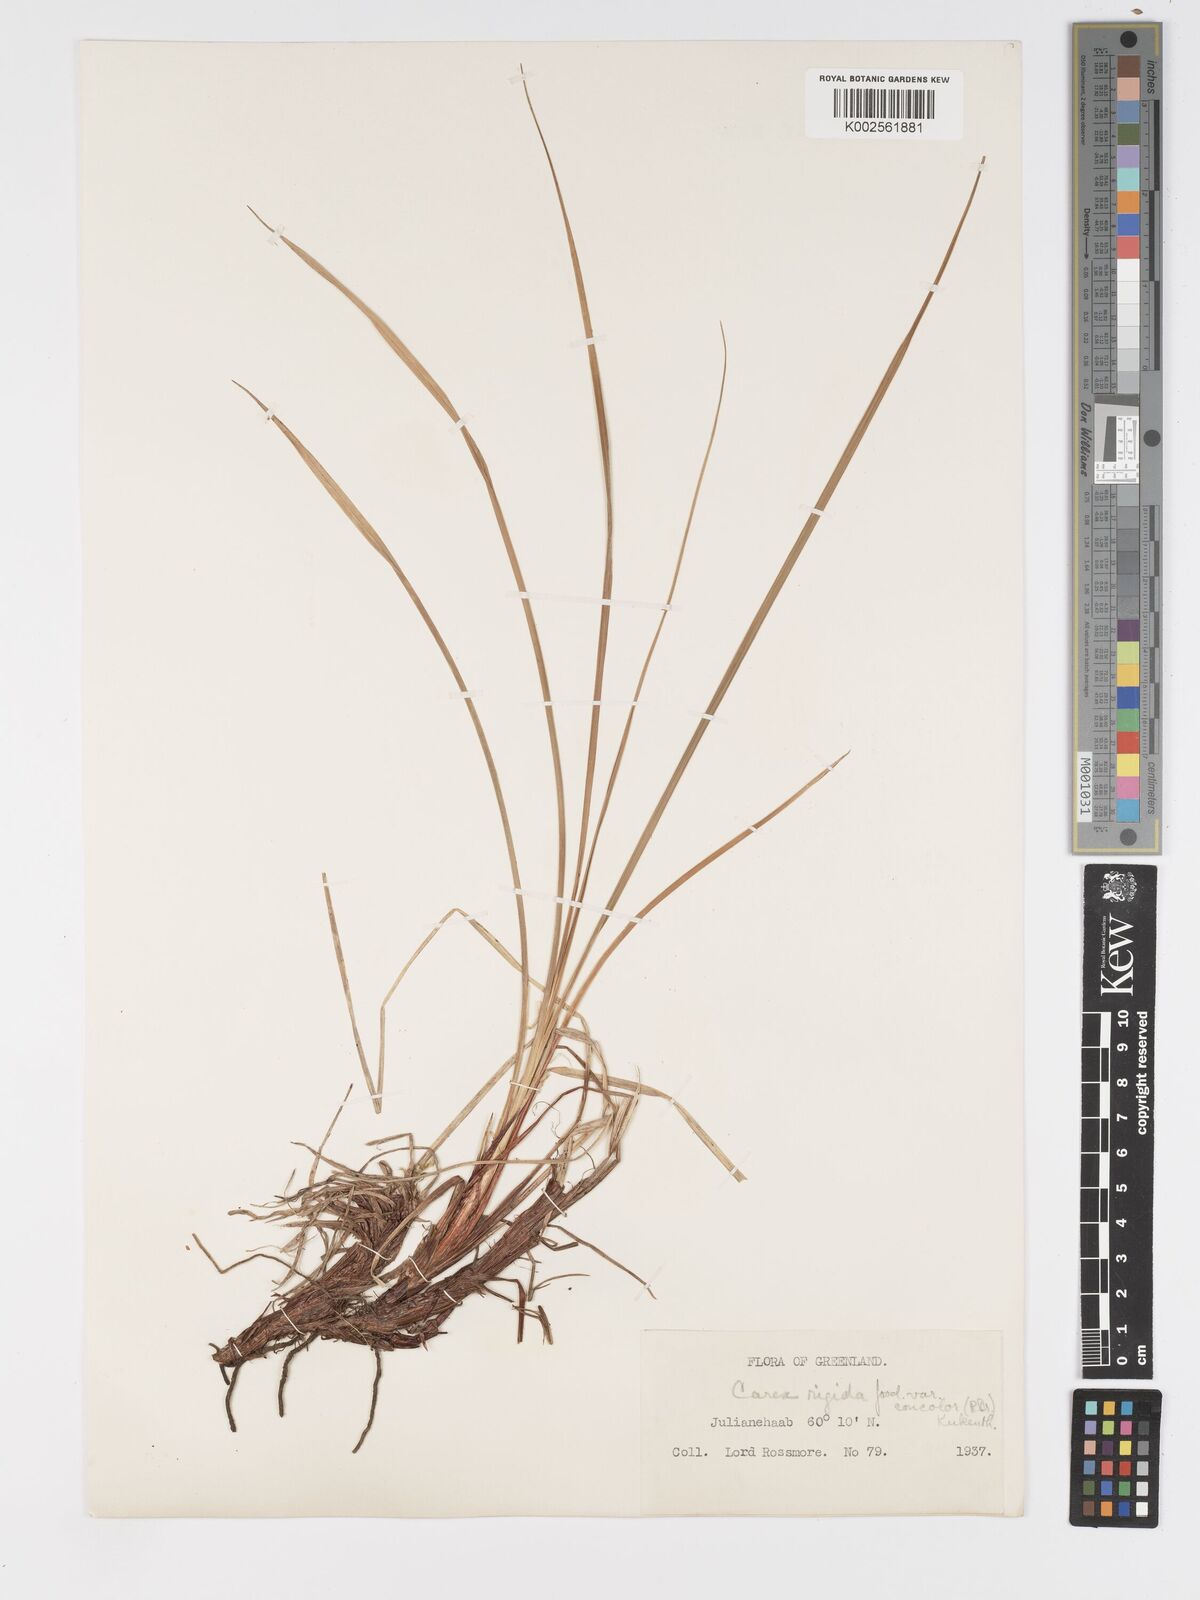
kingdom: Plantae
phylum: Tracheophyta
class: Liliopsida
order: Poales
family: Cyperaceae
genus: Carex
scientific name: Carex bigelowii
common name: Stiff sedge
